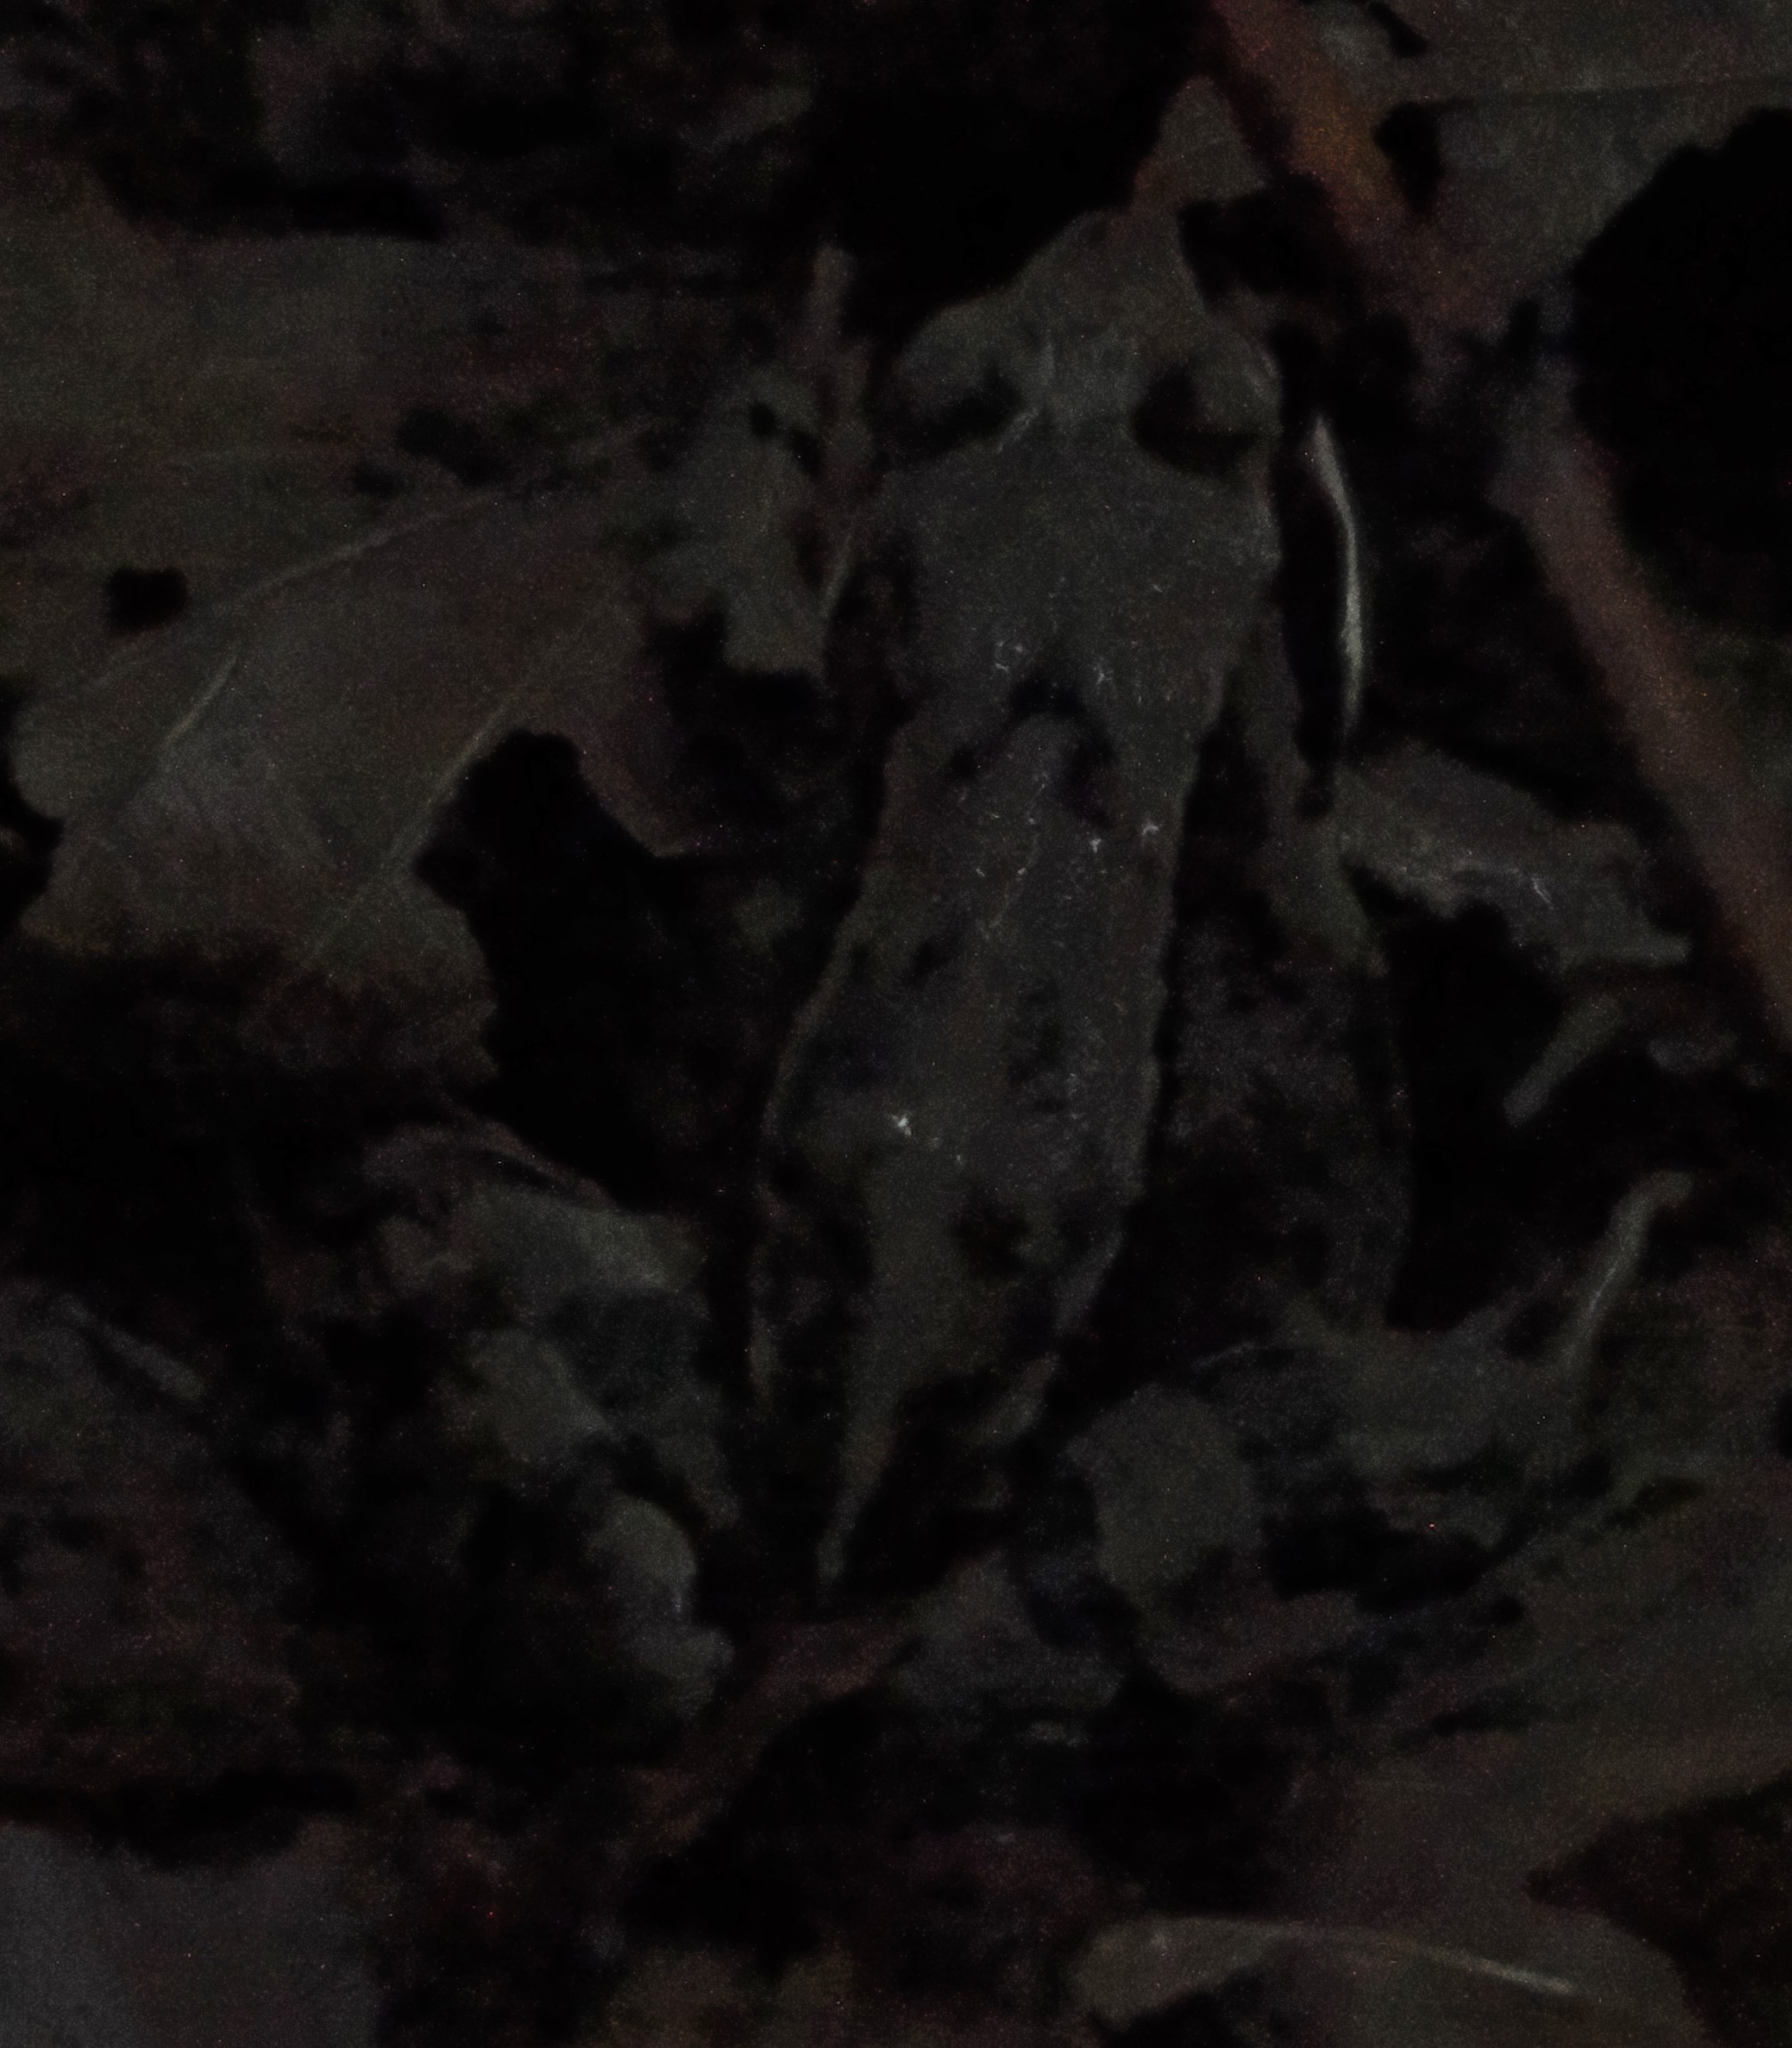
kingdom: Animalia
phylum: Chordata
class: Amphibia
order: Anura
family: Ranidae
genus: Rana
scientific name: Rana temporaria
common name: Butsnudet frø
